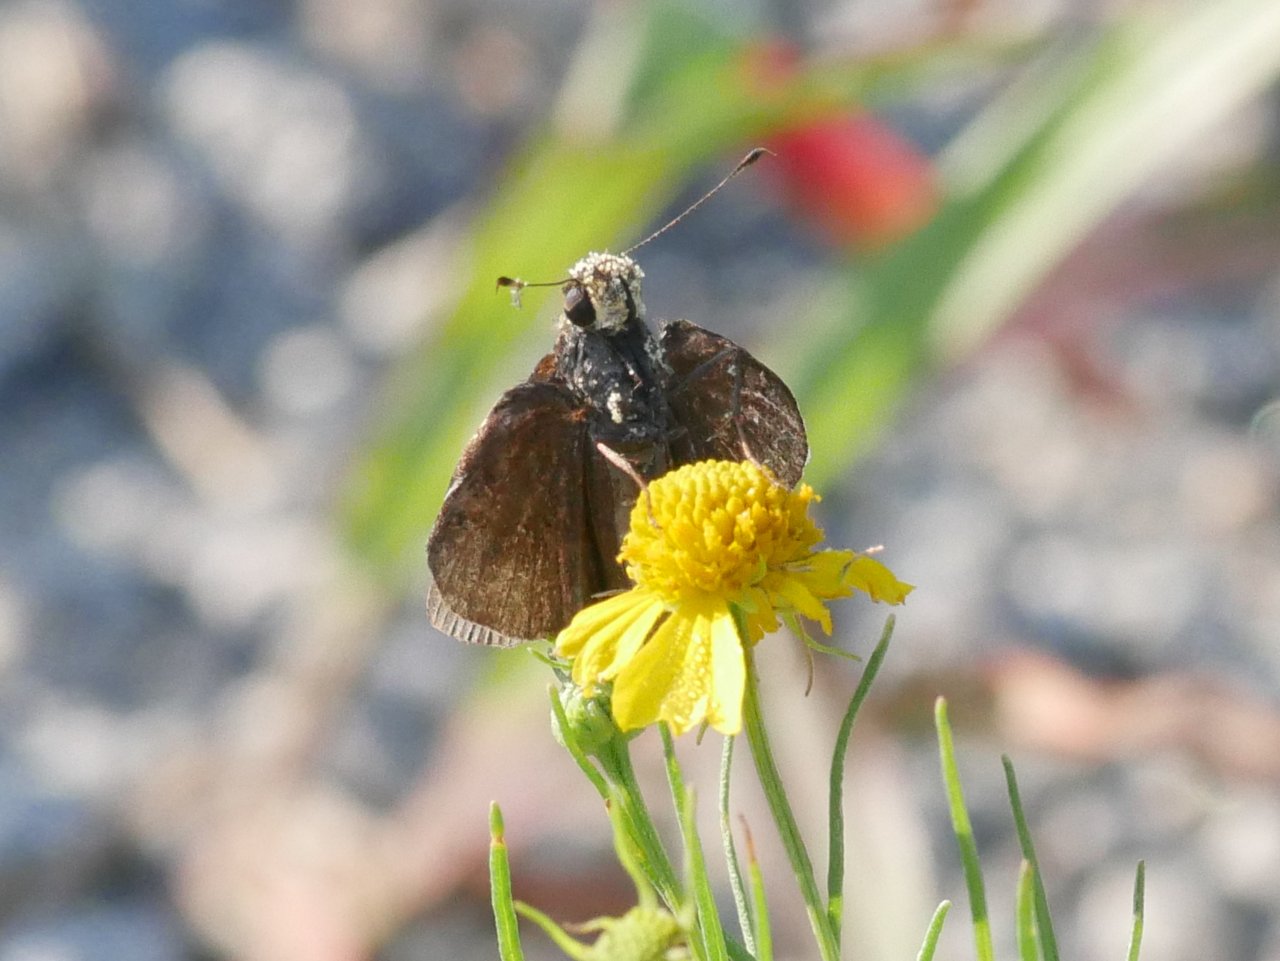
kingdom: Animalia
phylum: Arthropoda
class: Insecta
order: Lepidoptera
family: Hesperiidae
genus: Lerema
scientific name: Lerema accius
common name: Clouded Skipper
